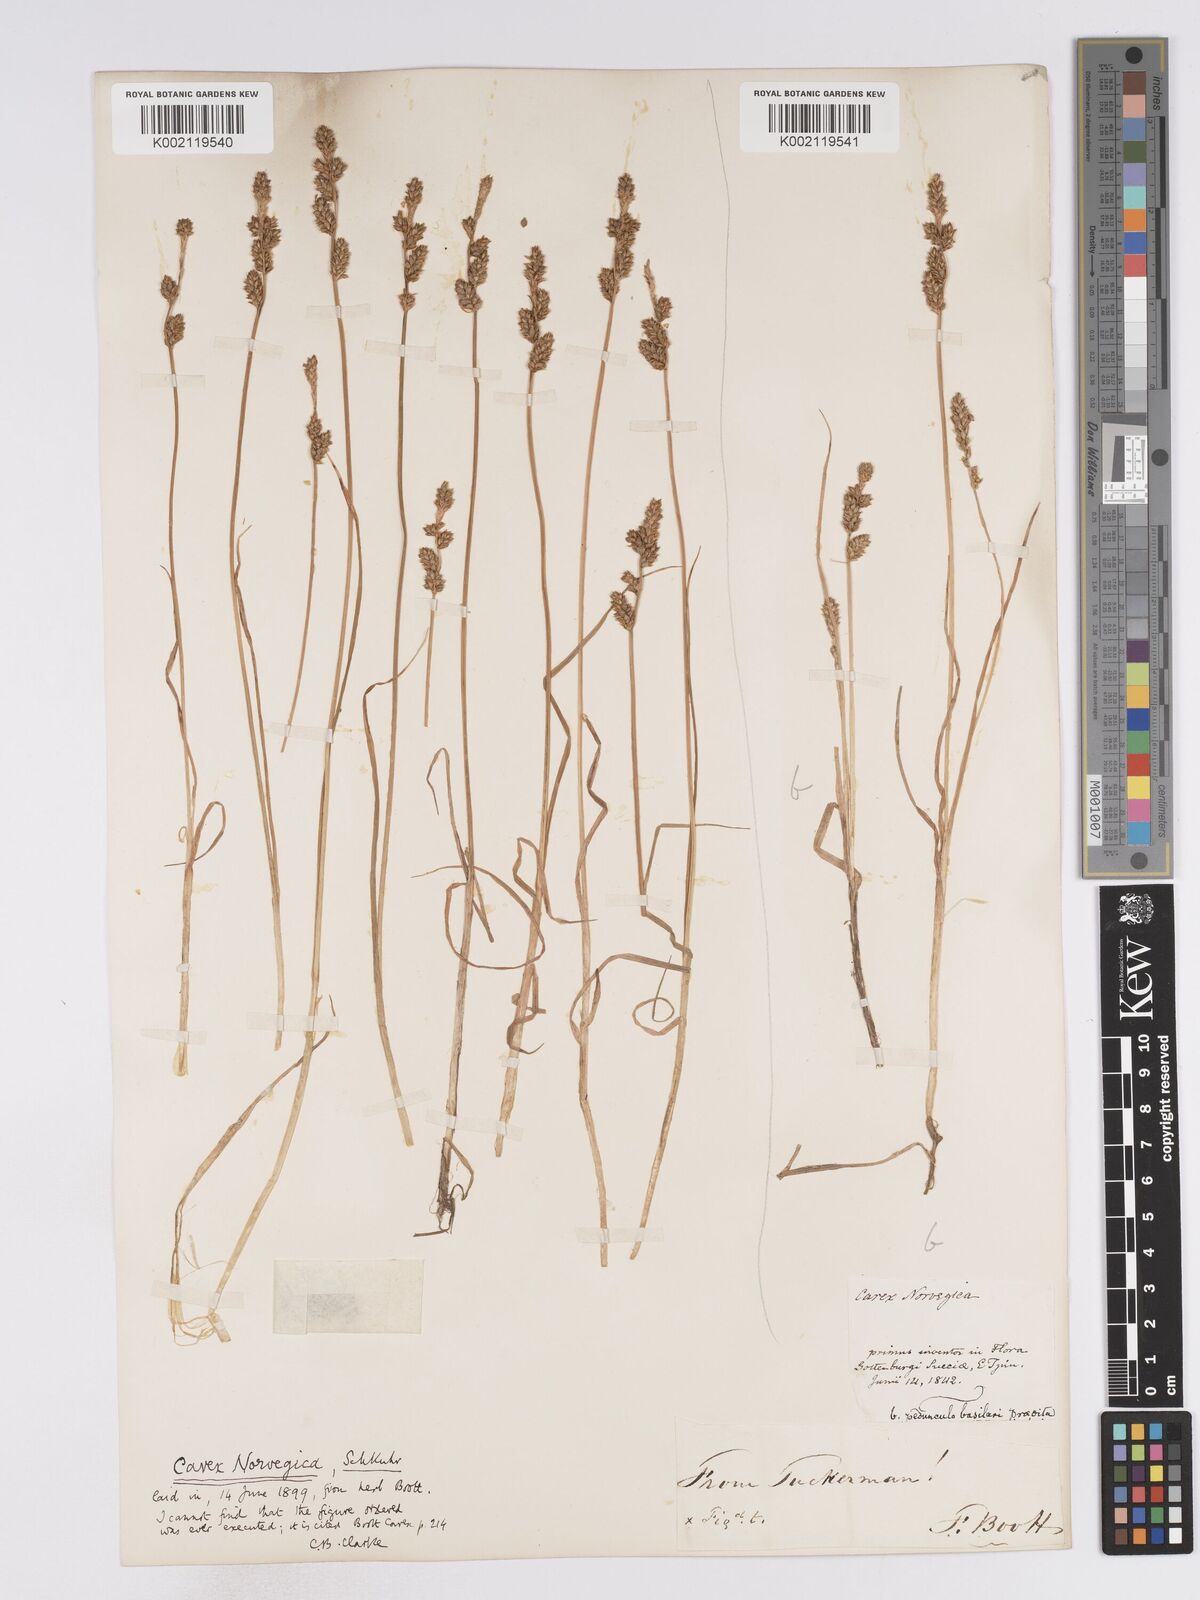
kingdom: Plantae
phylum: Tracheophyta
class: Liliopsida
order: Poales
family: Cyperaceae
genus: Carex
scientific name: Carex mackenziei
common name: Mackenzie's sedge
